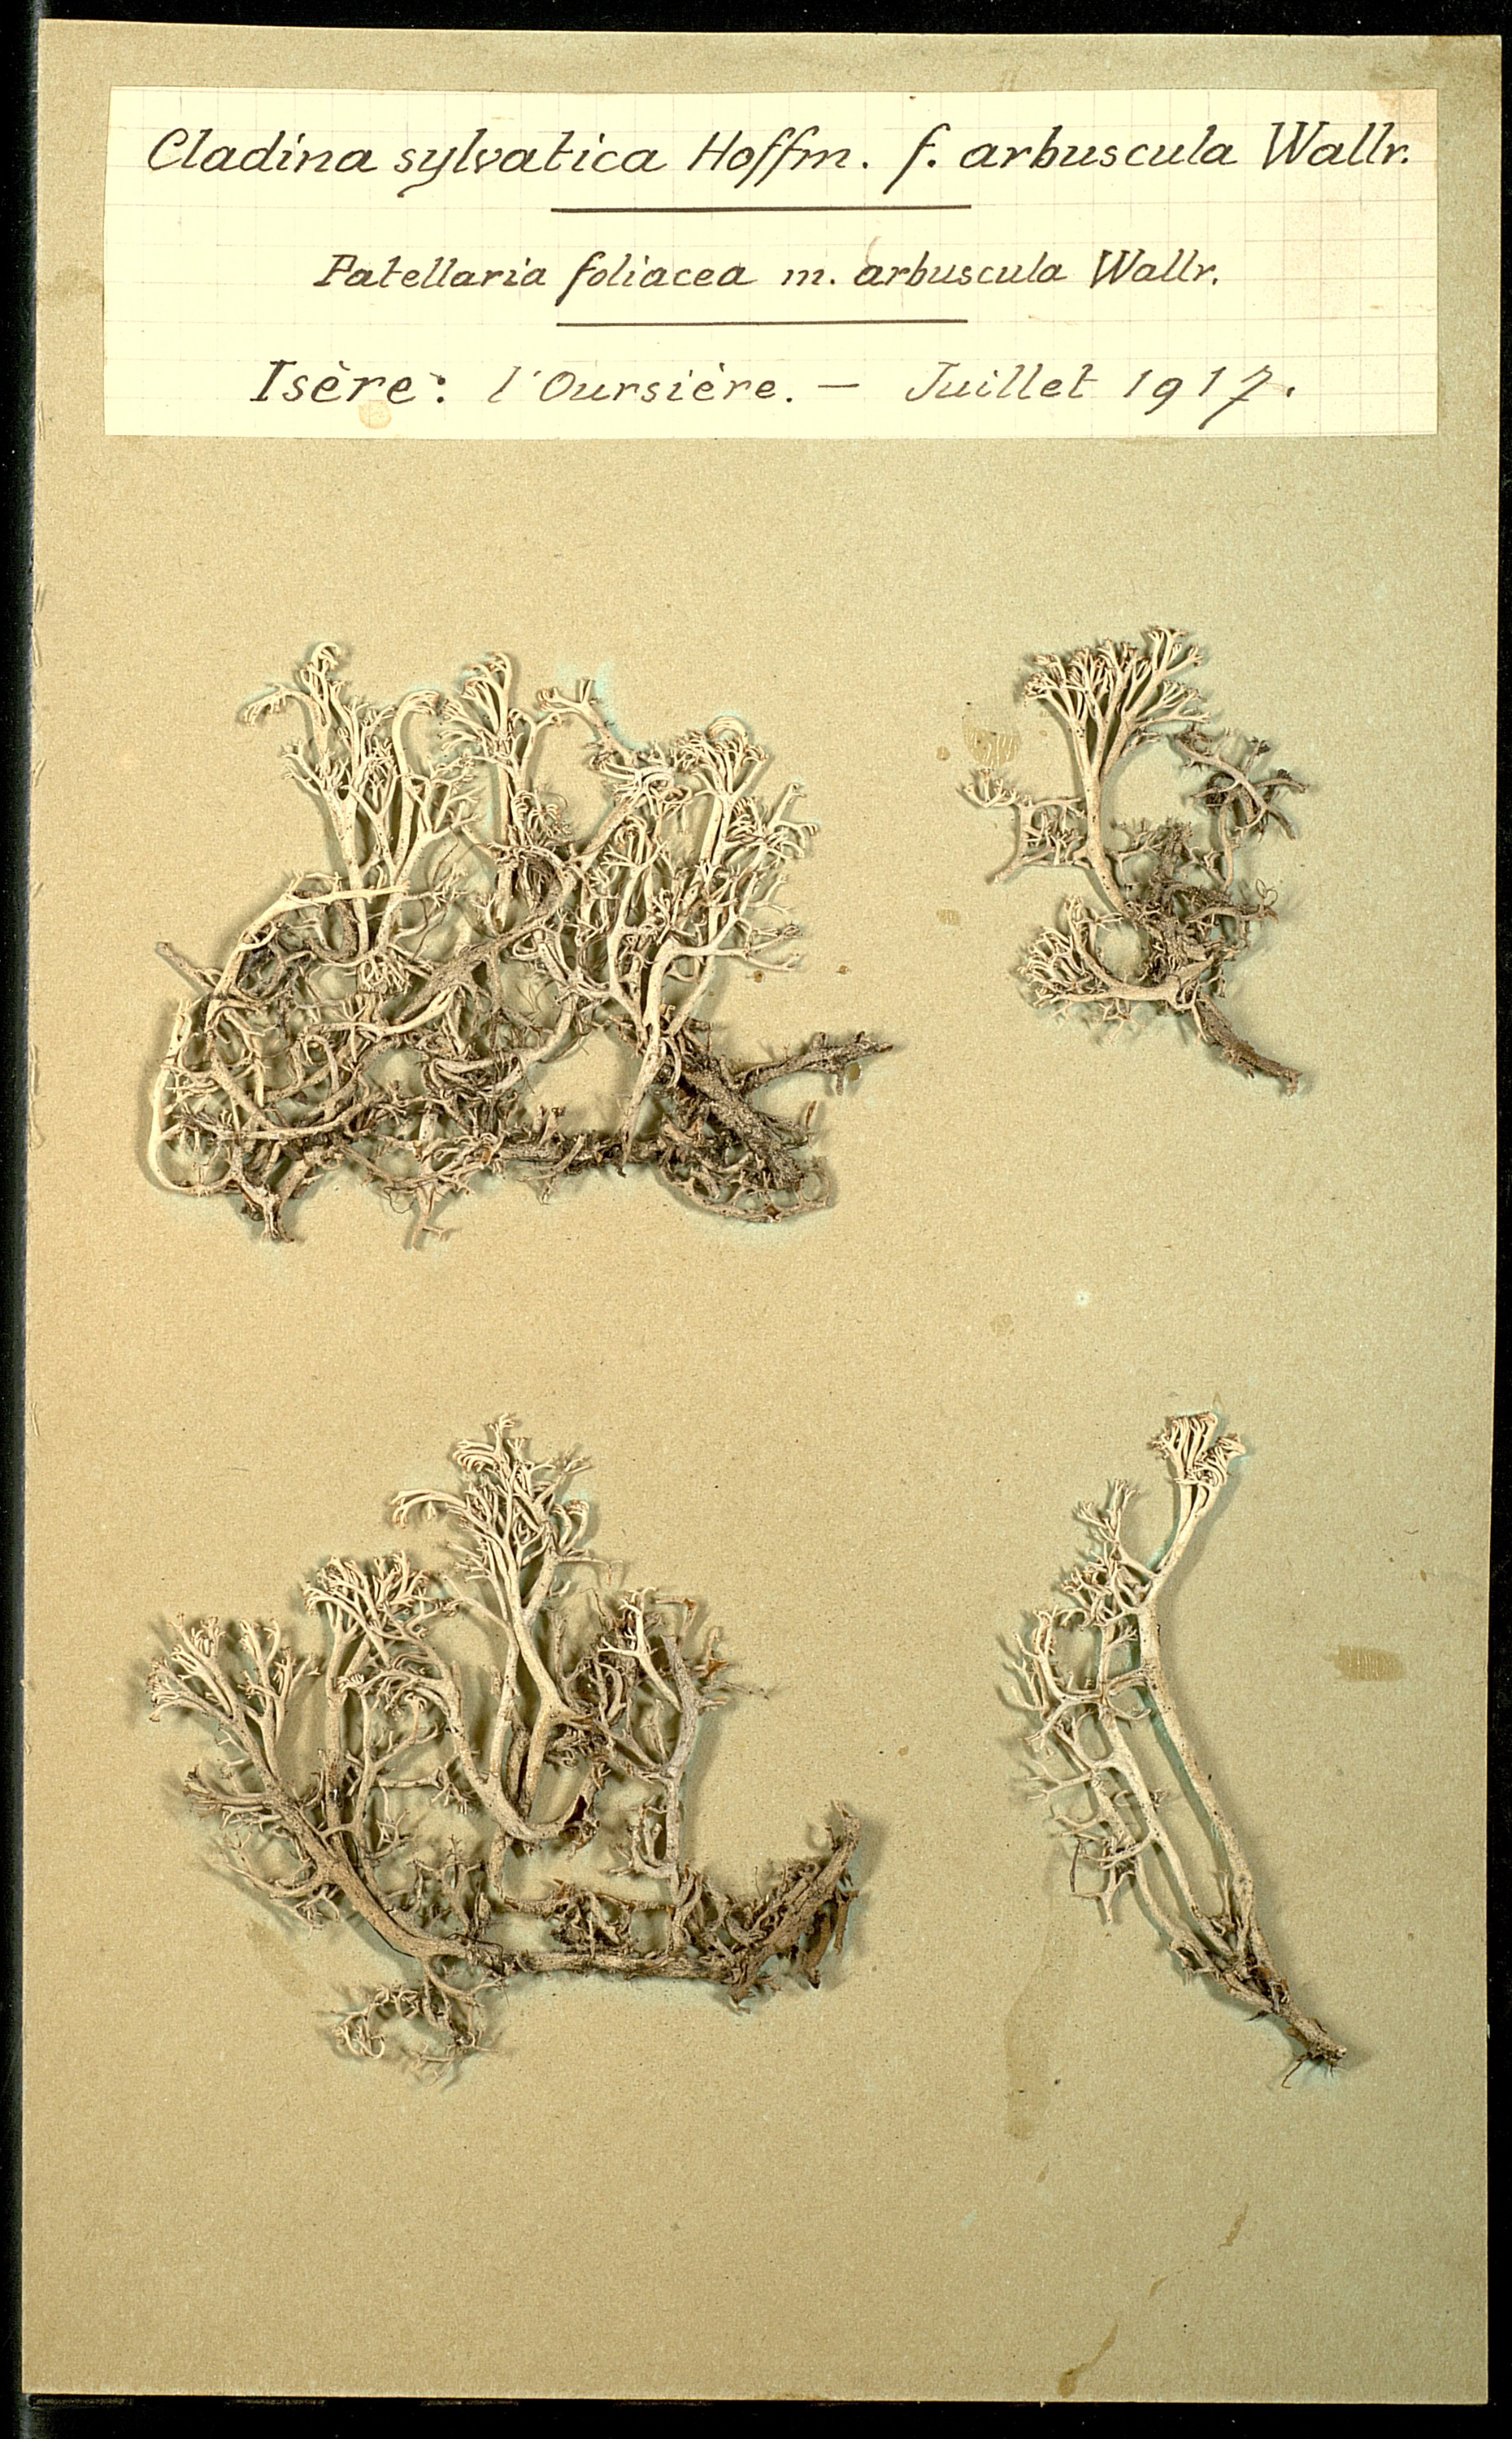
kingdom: Fungi
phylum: Ascomycota
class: Lecanoromycetes
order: Lecanorales
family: Cladoniaceae
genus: Cladonia
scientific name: Cladonia arbuscula
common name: Reindeer lichen
